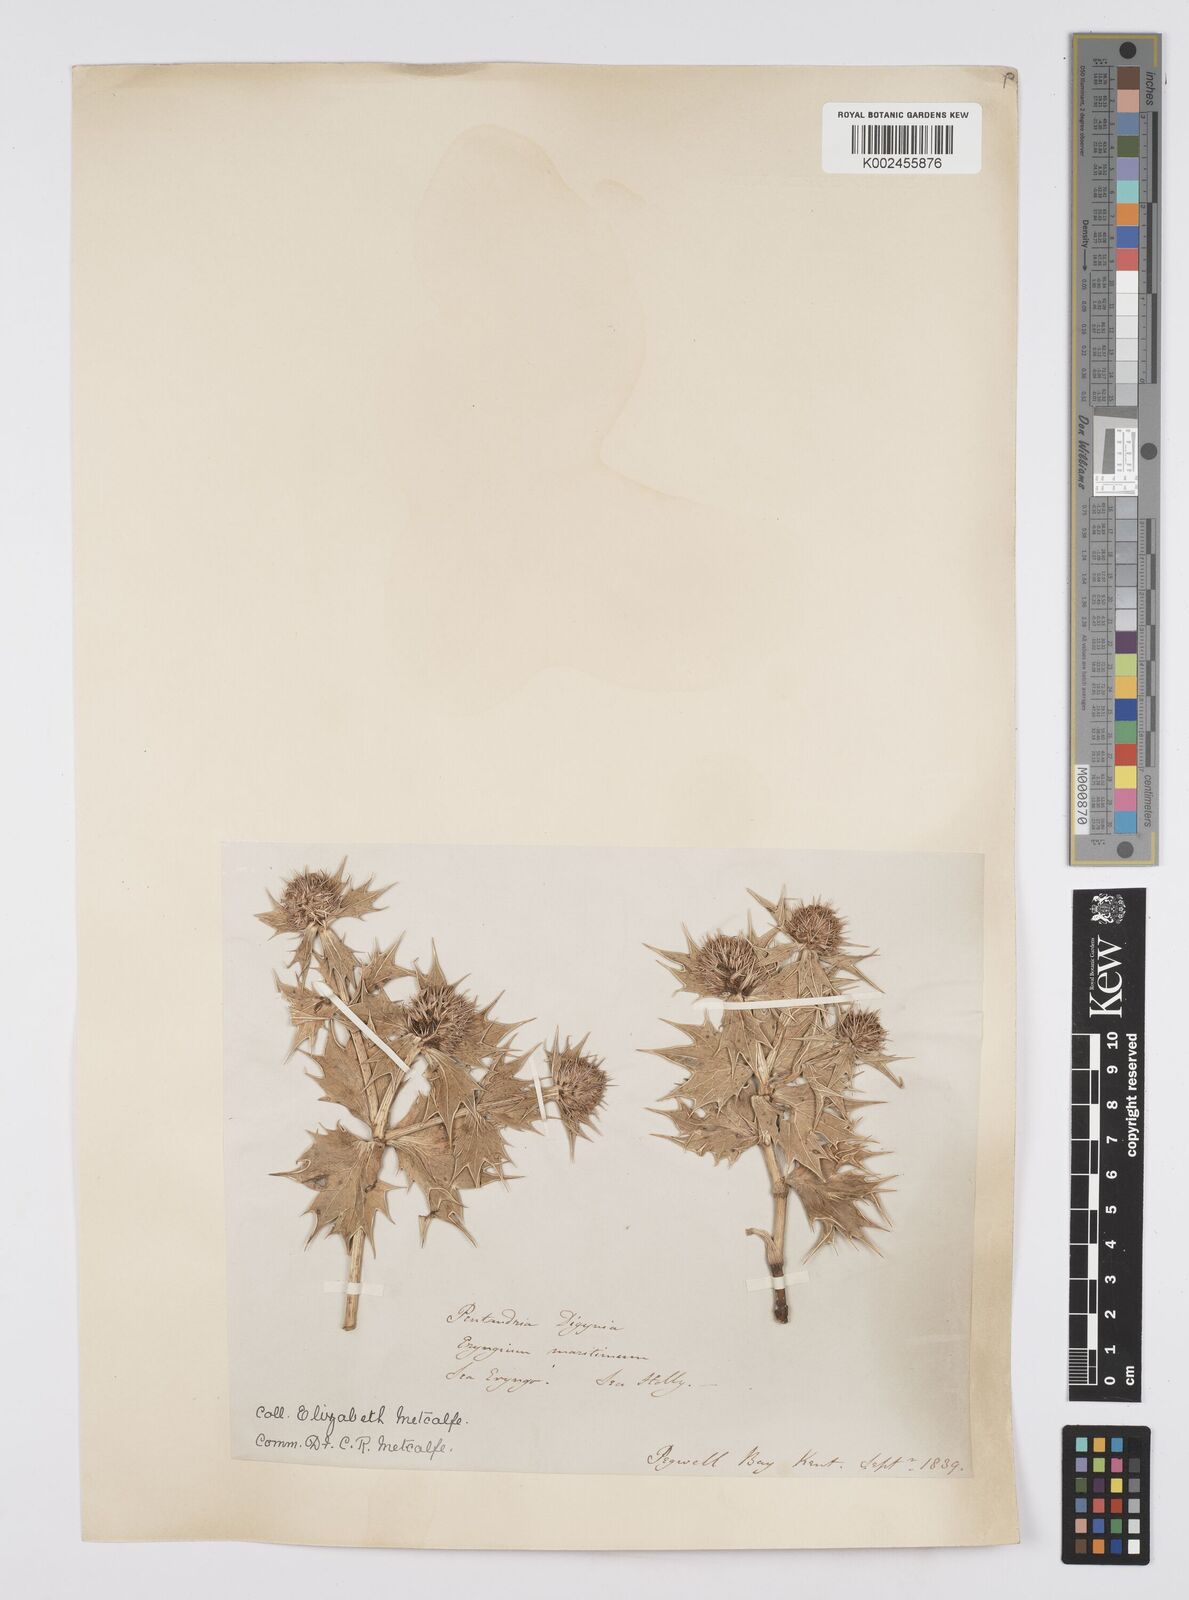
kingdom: Plantae
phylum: Tracheophyta
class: Magnoliopsida
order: Apiales
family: Apiaceae
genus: Eryngium
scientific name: Eryngium maritimum
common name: Sea-holly
